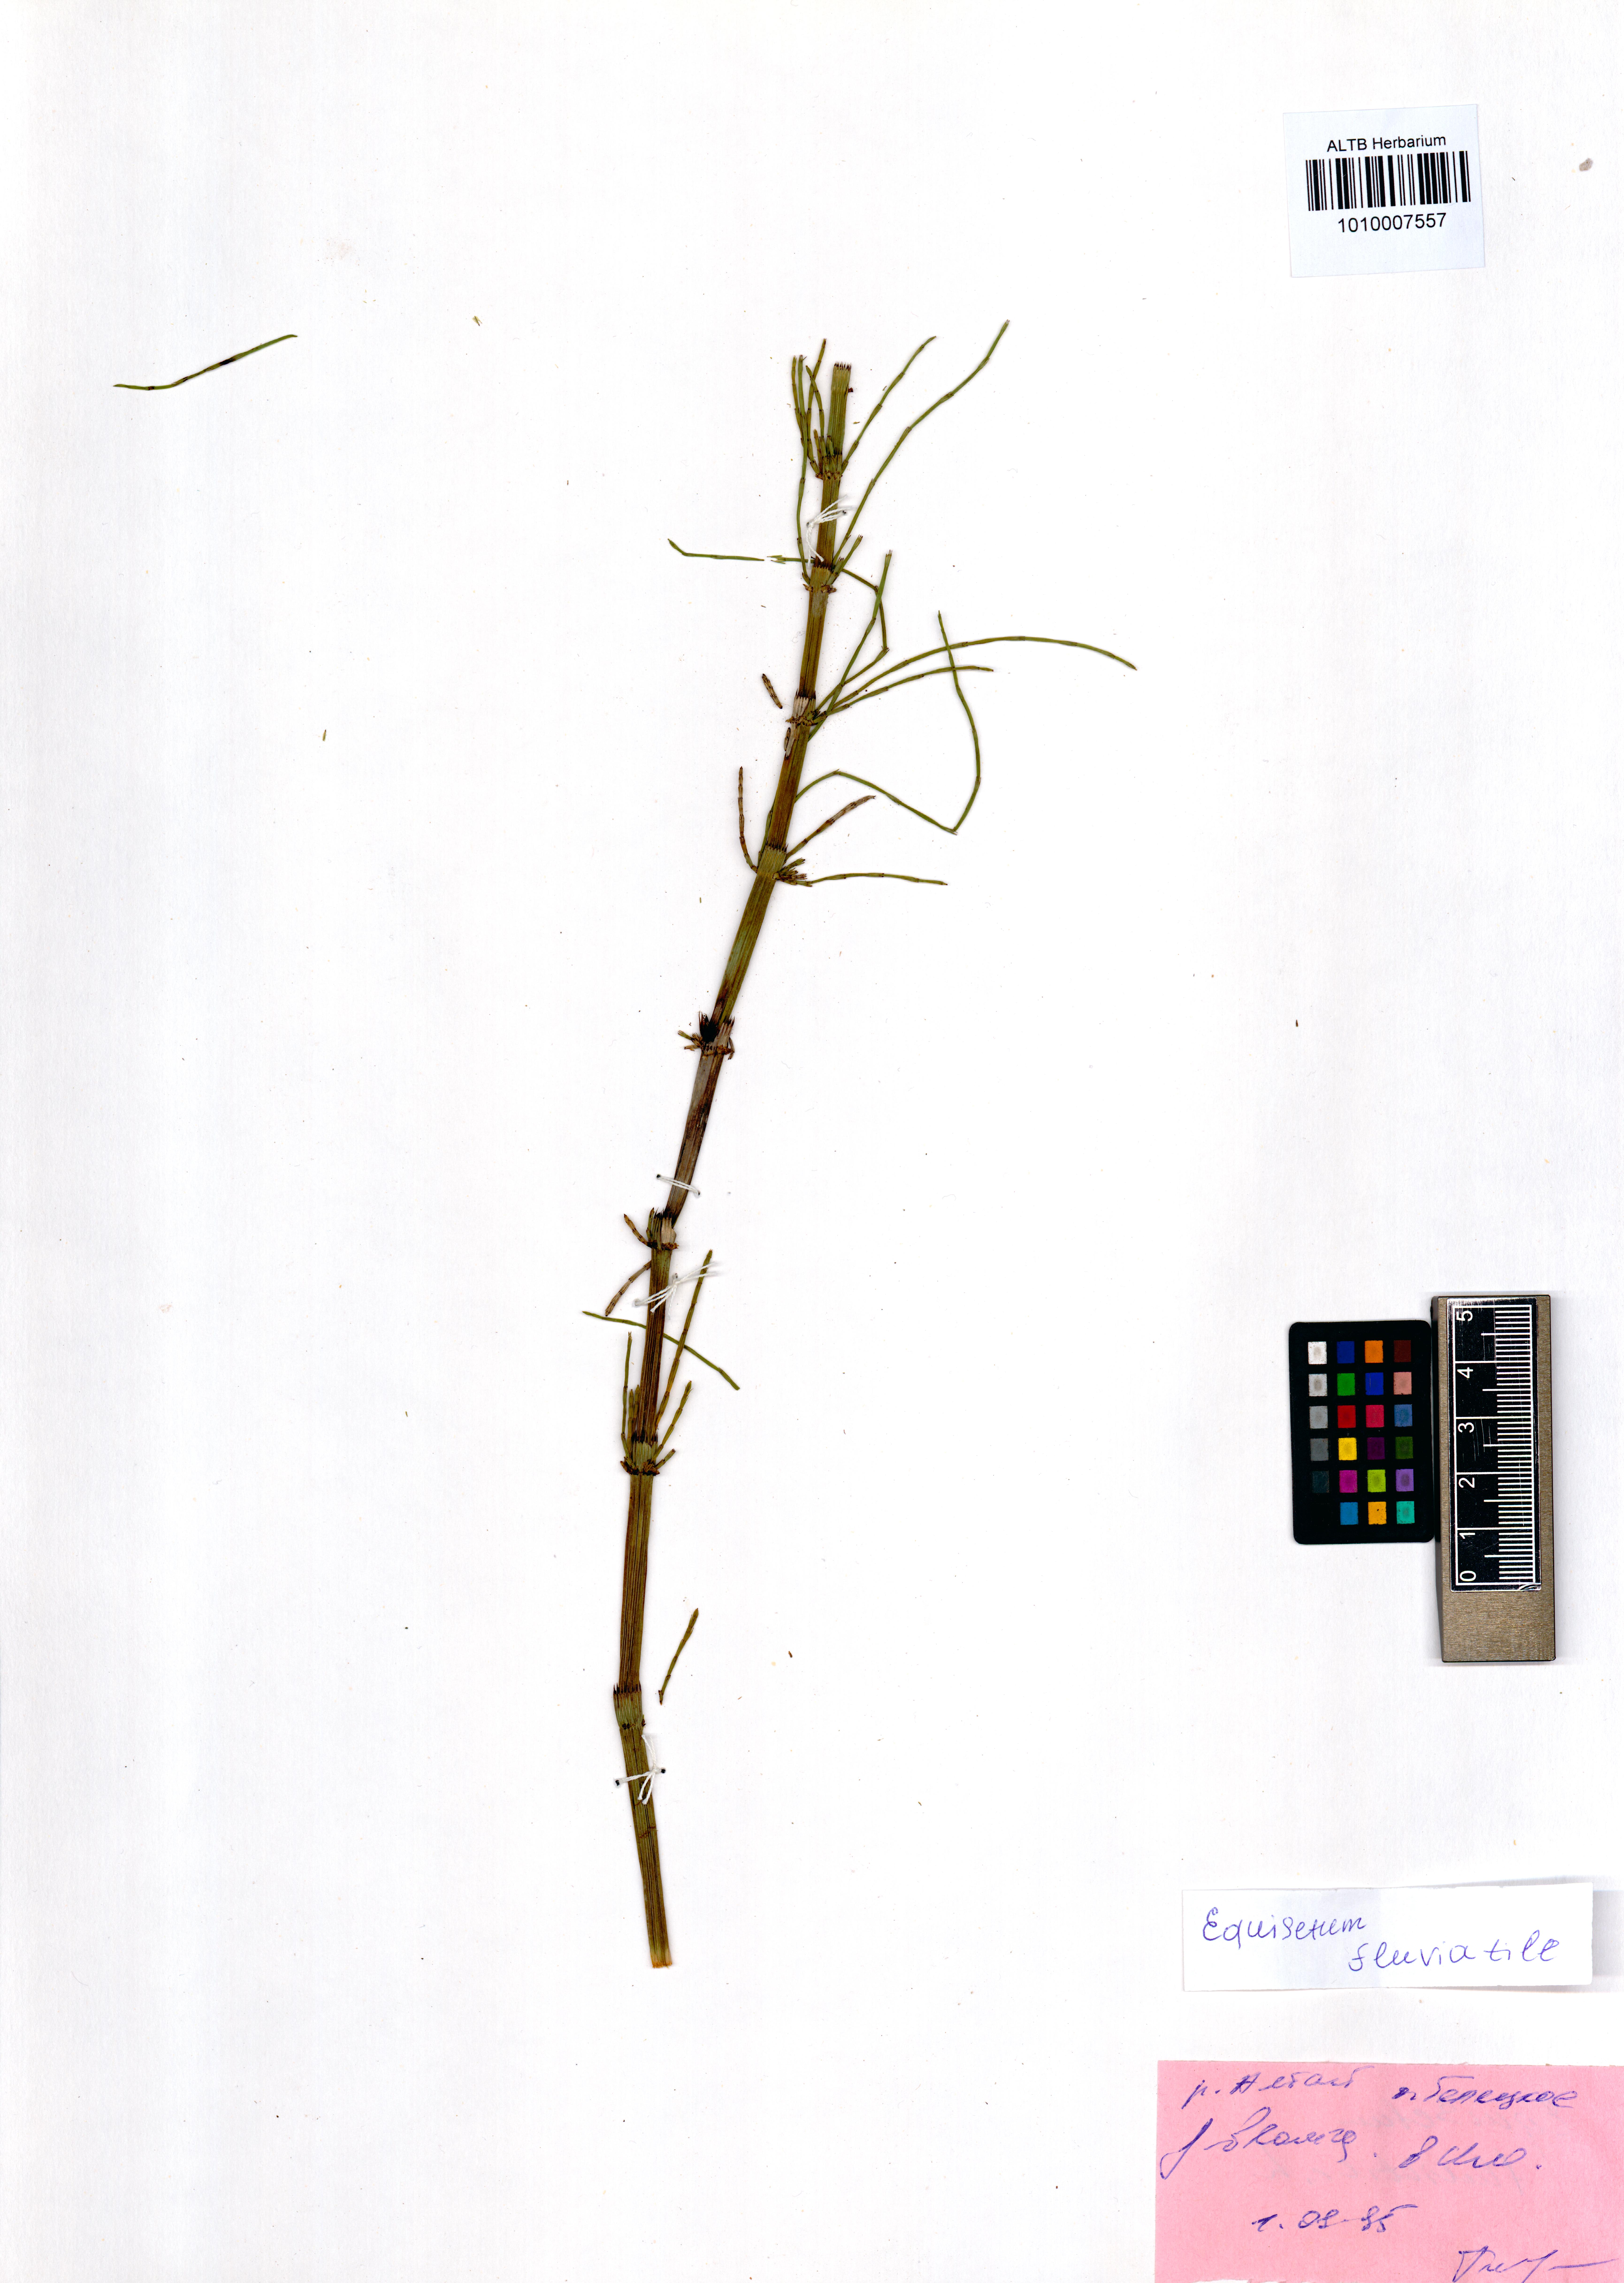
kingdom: Plantae
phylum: Tracheophyta
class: Polypodiopsida
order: Equisetales
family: Equisetaceae
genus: Equisetum
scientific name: Equisetum fluviatile
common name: Water horsetail
